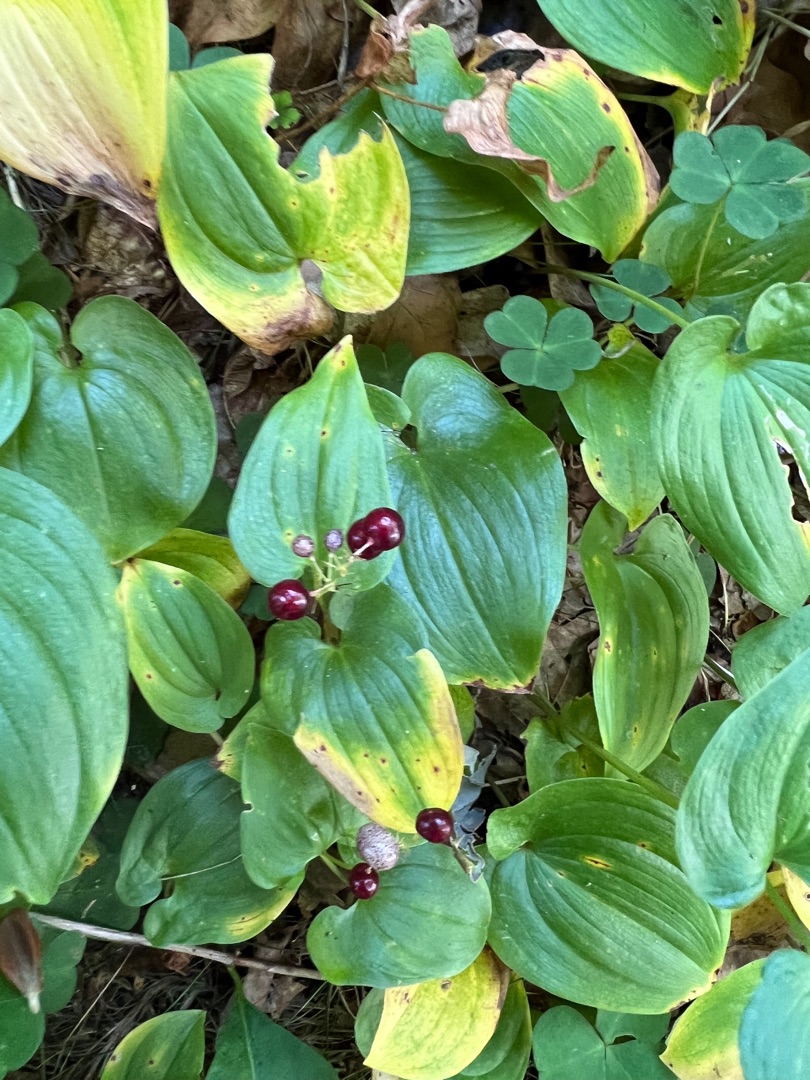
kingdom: Plantae
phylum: Tracheophyta
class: Liliopsida
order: Asparagales
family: Asparagaceae
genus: Maianthemum
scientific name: Maianthemum bifolium
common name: Majblomst
